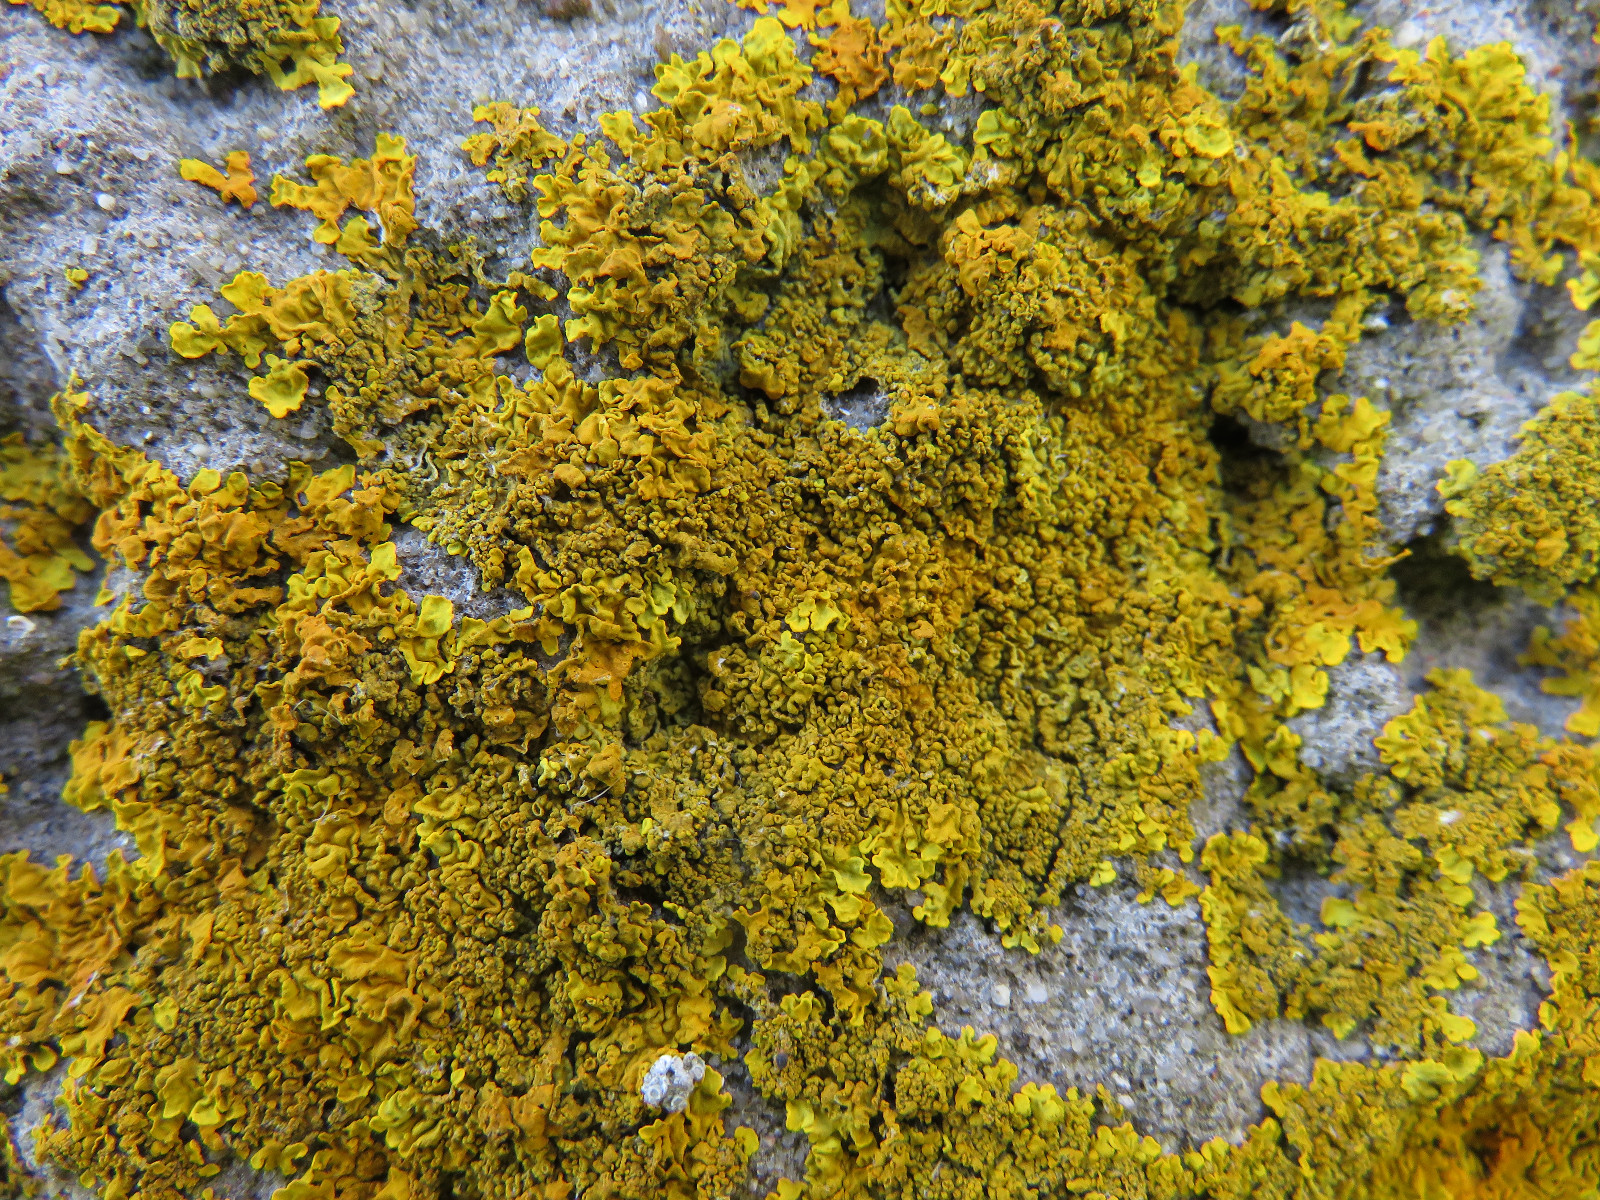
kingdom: Fungi
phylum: Ascomycota
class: Lecanoromycetes
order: Teloschistales
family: Teloschistaceae
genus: Xanthoria
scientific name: Xanthoria calcicola
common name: vortet væggelav
